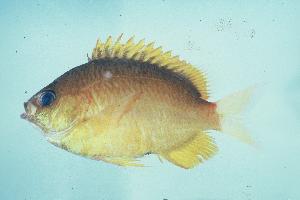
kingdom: Animalia
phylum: Chordata
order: Perciformes
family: Pomacentridae
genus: Chromis
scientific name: Chromis analis
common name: Yellow chromis
